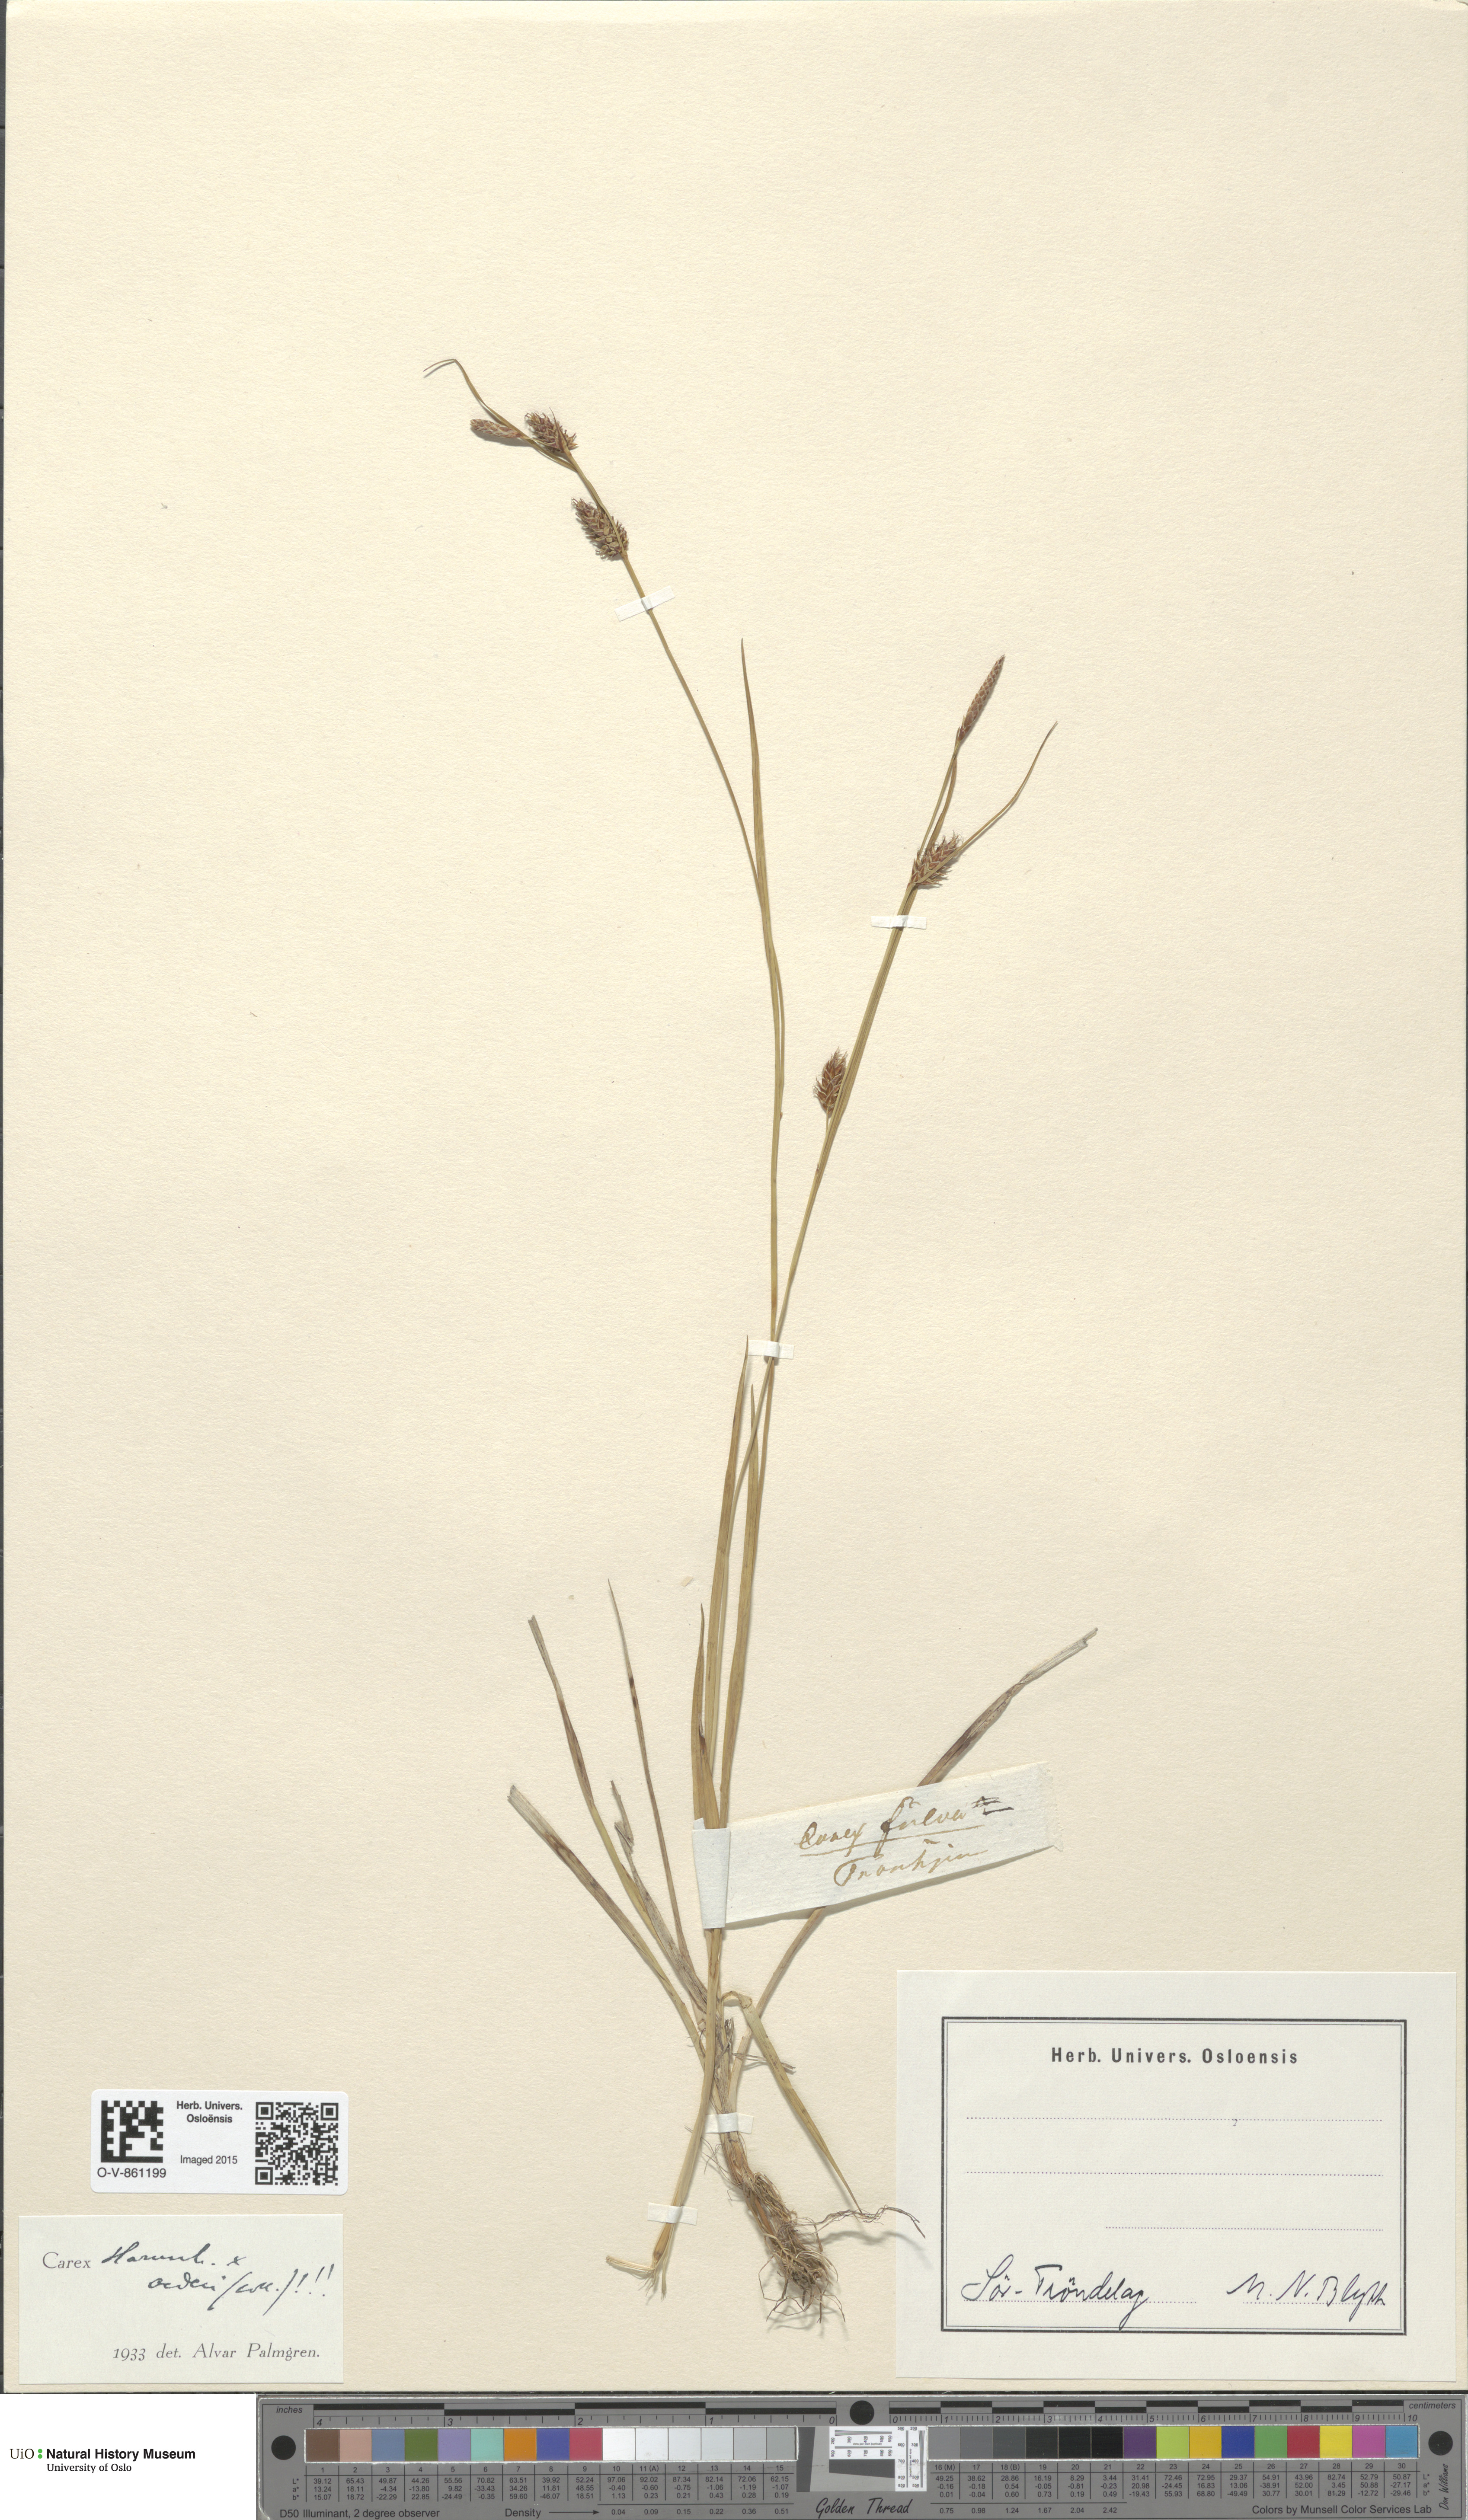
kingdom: Plantae
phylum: Tracheophyta
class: Liliopsida
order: Poales
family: Cyperaceae
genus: Carex
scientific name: Carex
